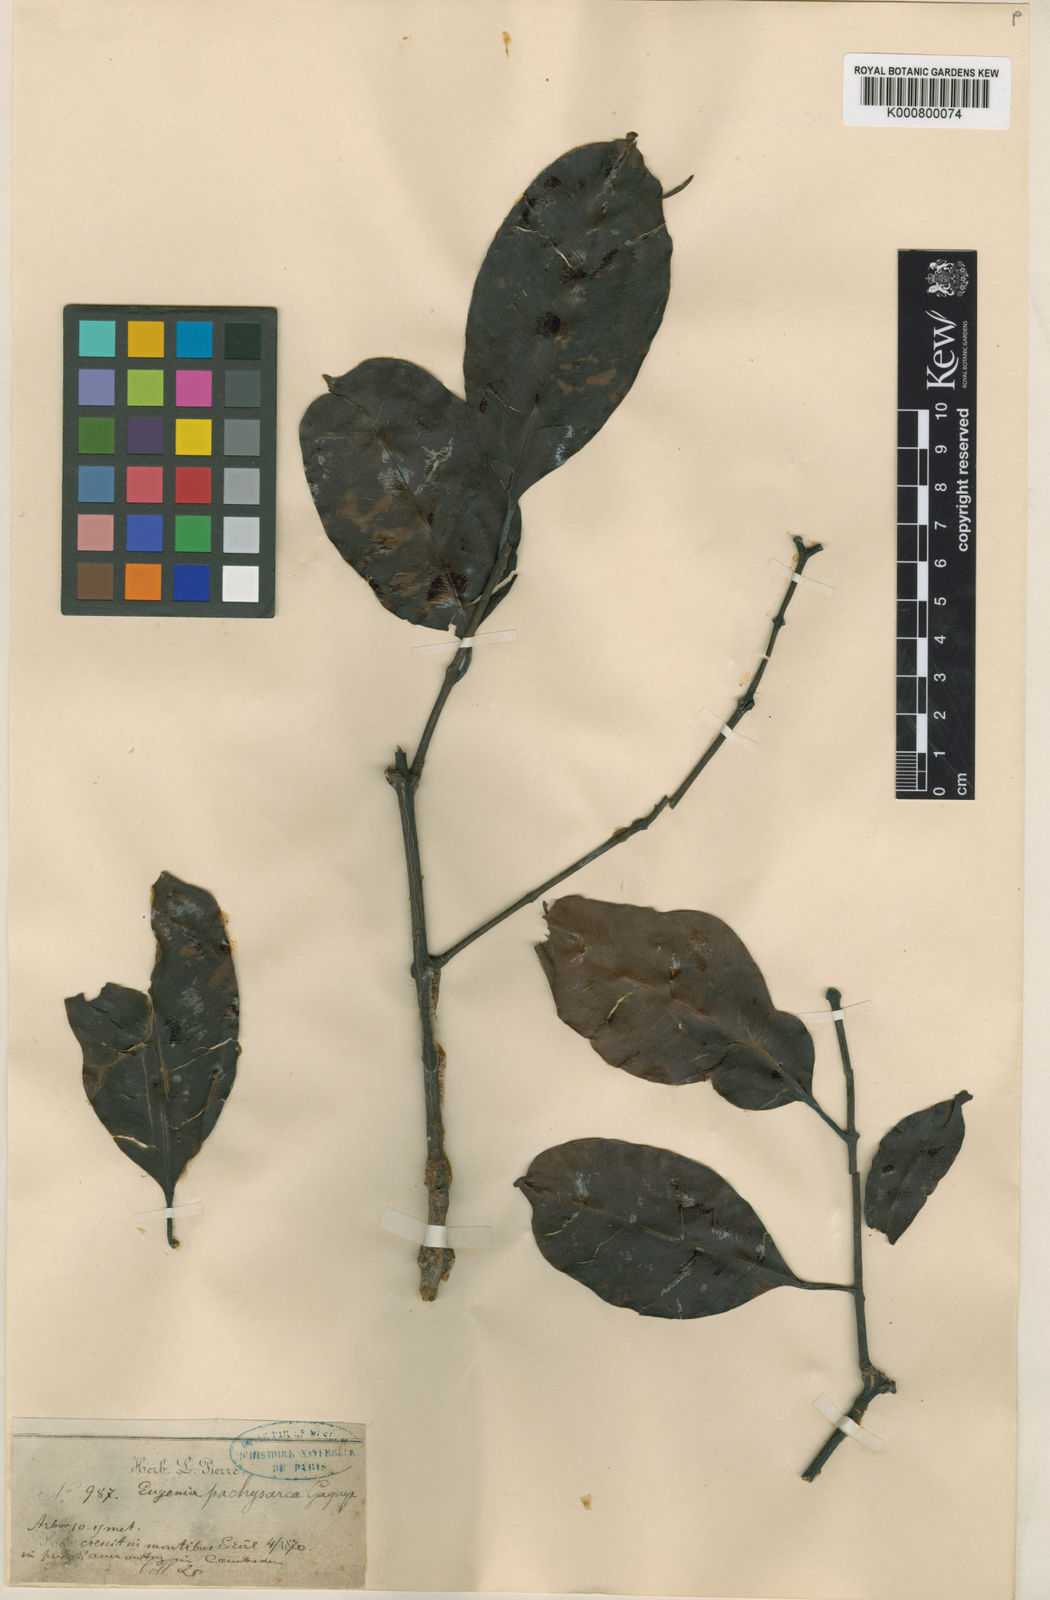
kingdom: Plantae
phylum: Tracheophyta
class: Magnoliopsida
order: Myrtales
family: Myrtaceae
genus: Syzygium
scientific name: Syzygium pachysarcum
